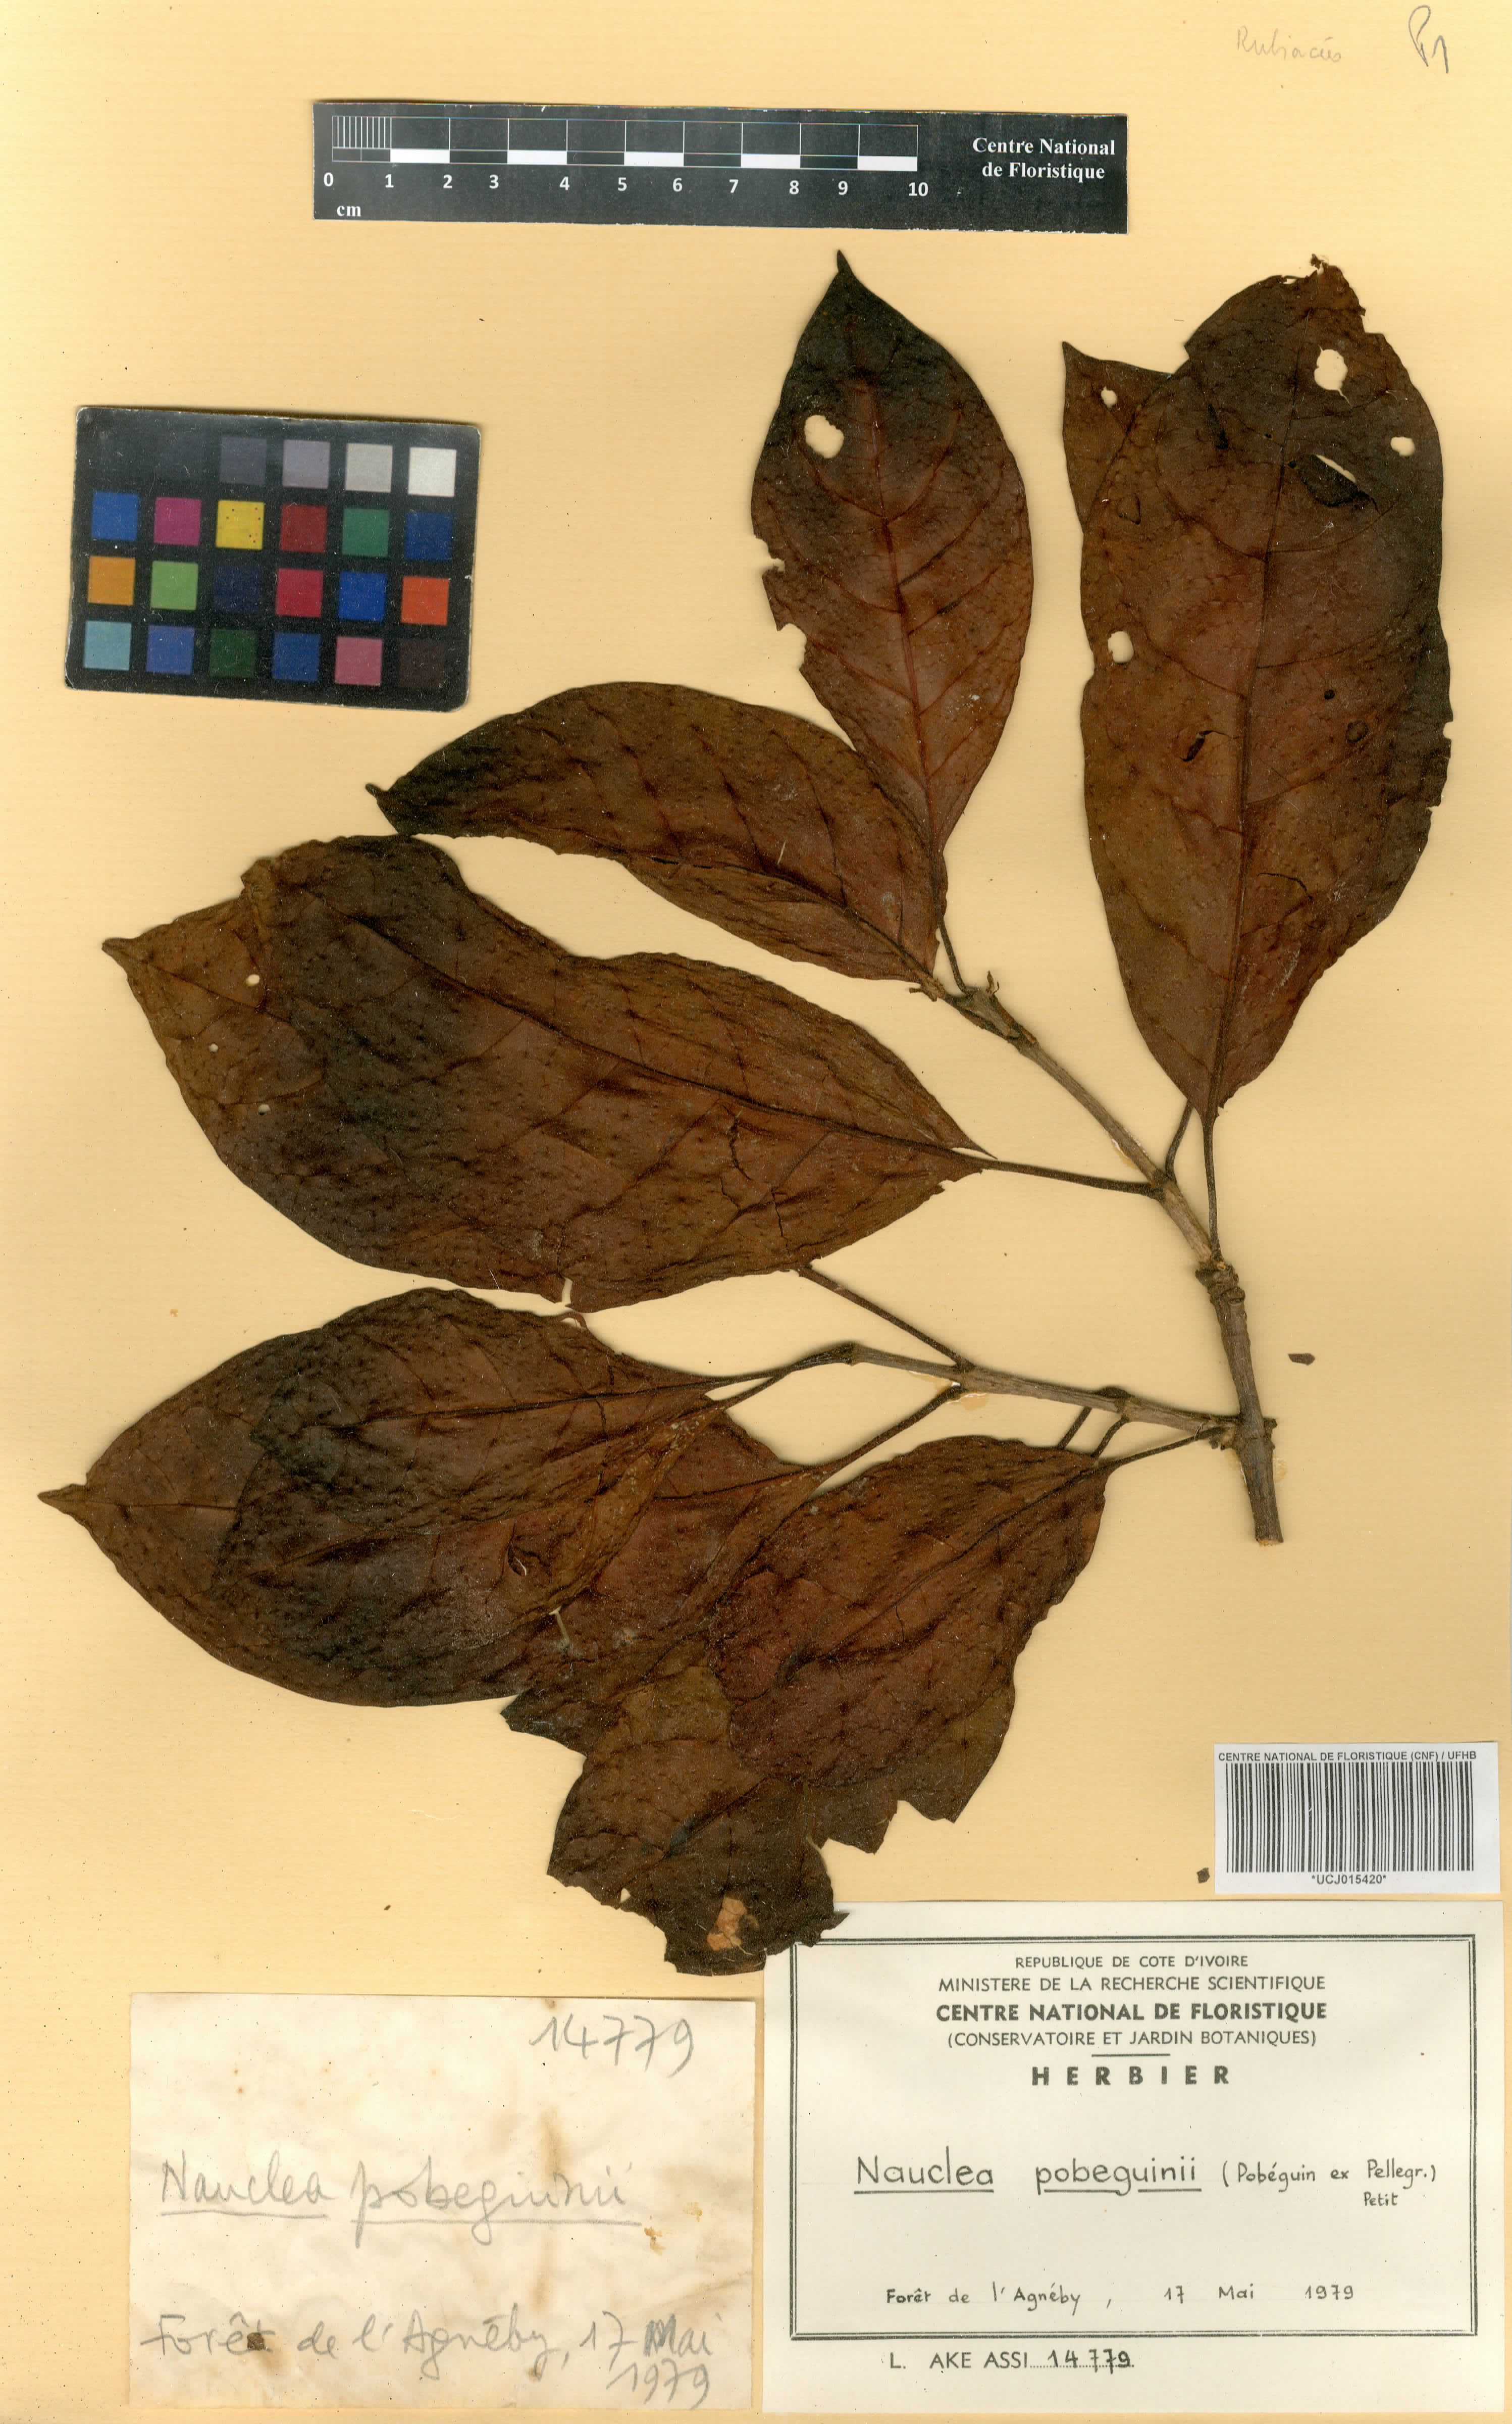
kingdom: Plantae
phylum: Tracheophyta
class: Magnoliopsida
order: Gentianales
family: Rubiaceae
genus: Nauclea
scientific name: Nauclea pobeguinii
